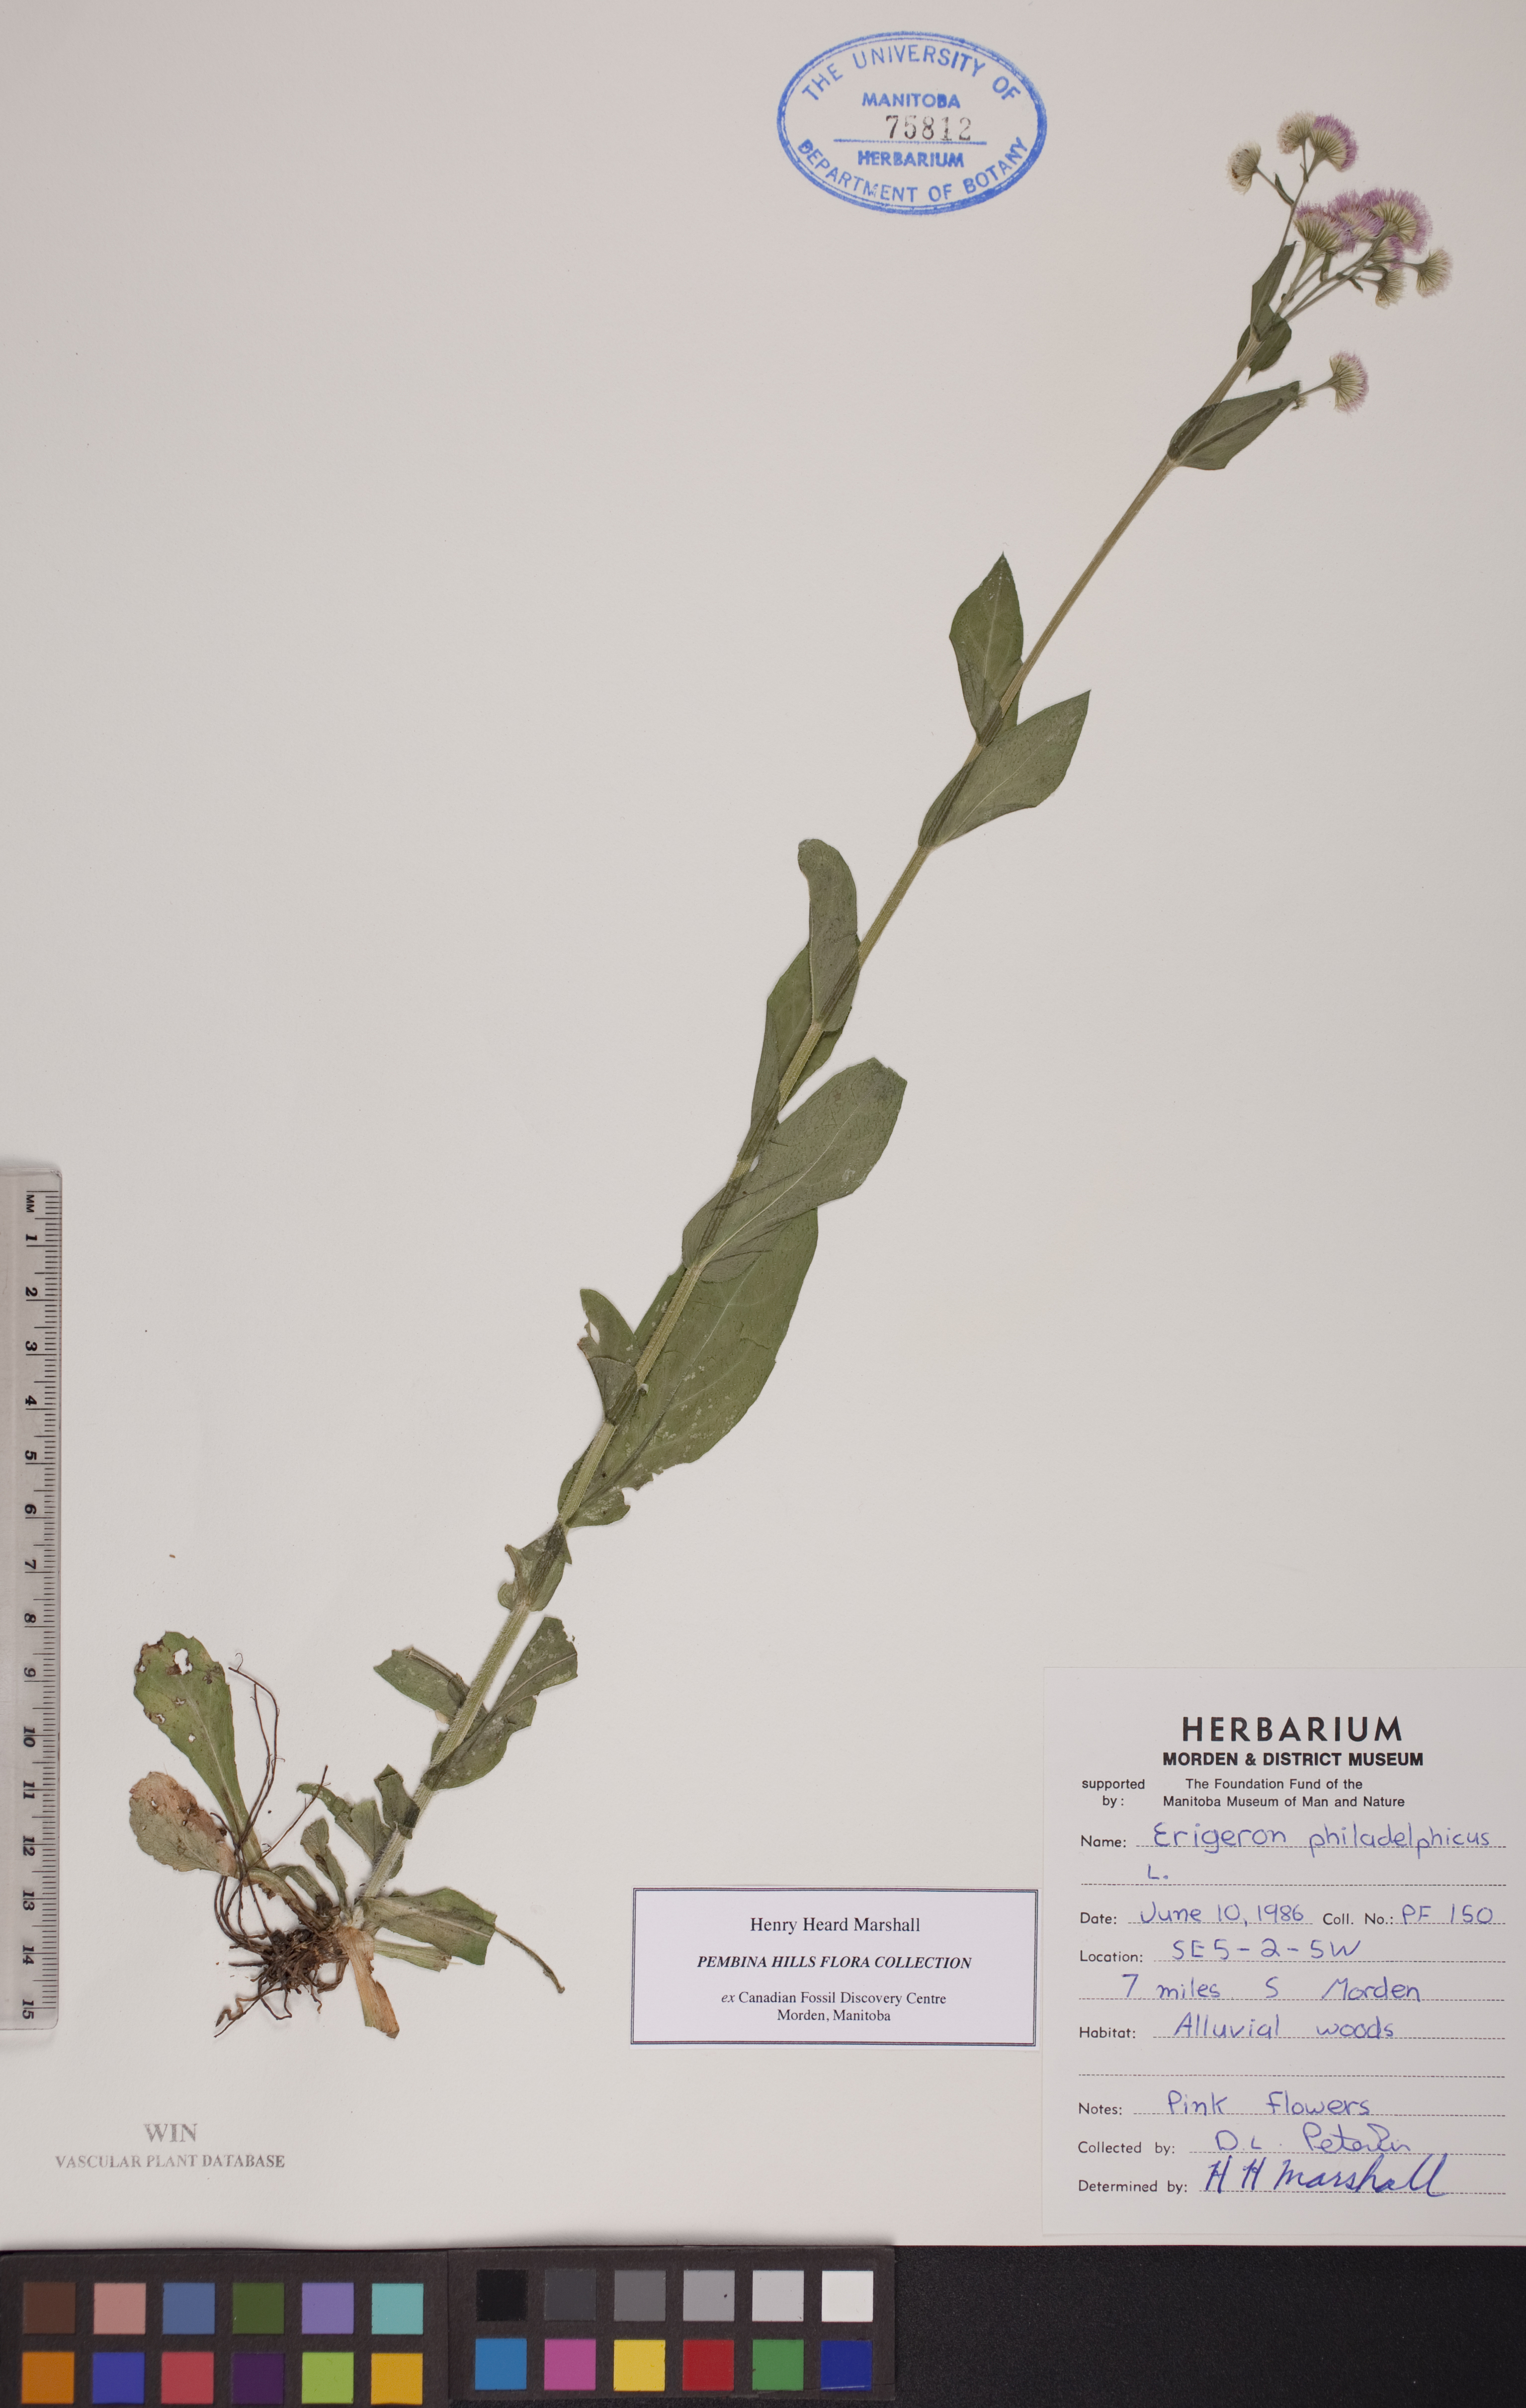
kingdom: Plantae
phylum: Tracheophyta
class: Magnoliopsida
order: Asterales
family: Asteraceae
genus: Erigeron
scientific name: Erigeron philadelphicus
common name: Robin's-plantain
